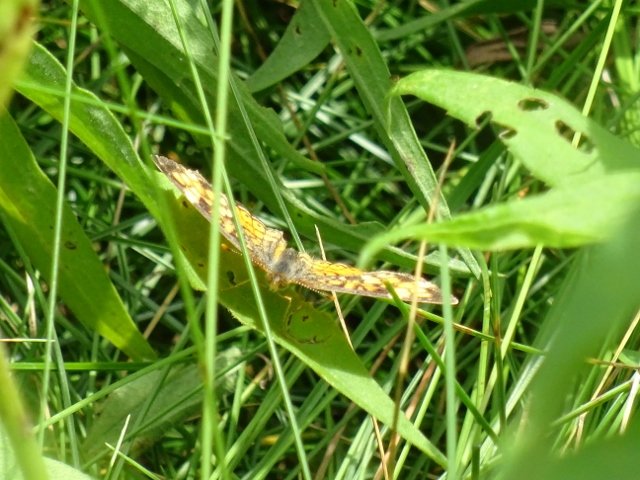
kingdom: Animalia
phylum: Arthropoda
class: Insecta
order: Lepidoptera
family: Nymphalidae
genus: Phyciodes
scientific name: Phyciodes tharos
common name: Northern Crescent
